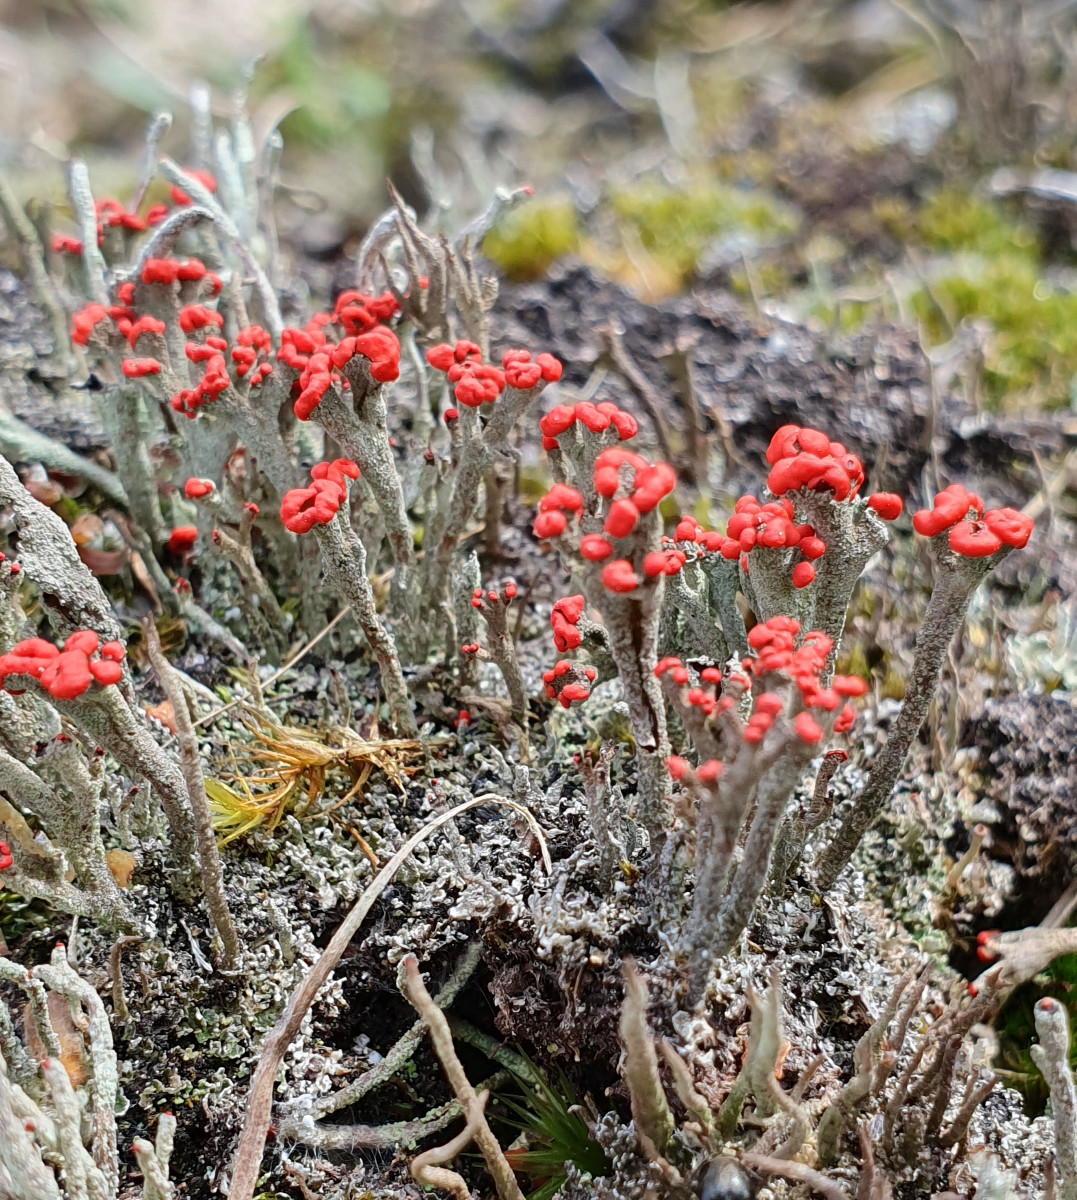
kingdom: Fungi
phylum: Ascomycota
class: Lecanoromycetes
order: Lecanorales
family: Cladoniaceae
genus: Cladonia
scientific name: Cladonia floerkeana
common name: lakrød bægerlav
